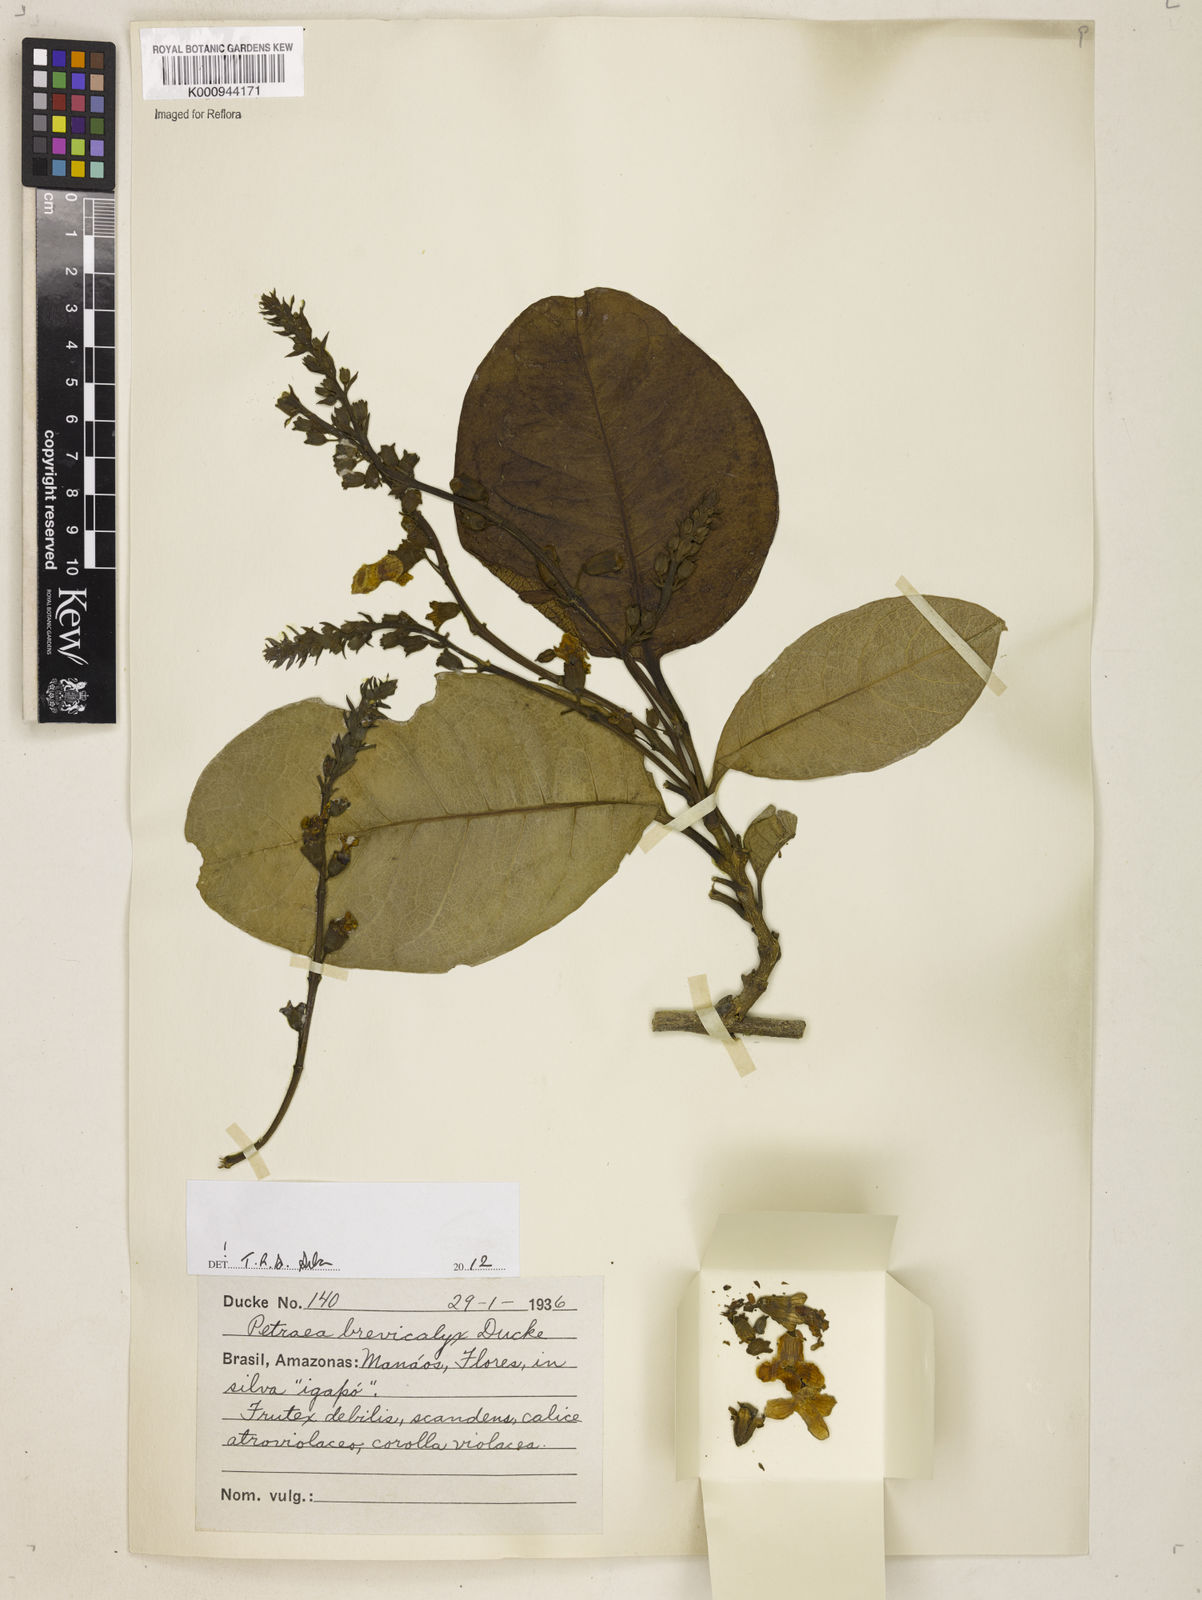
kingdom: Plantae
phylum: Tracheophyta
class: Magnoliopsida
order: Lamiales
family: Verbenaceae
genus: Petrea
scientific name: Petrea brevicalyx
